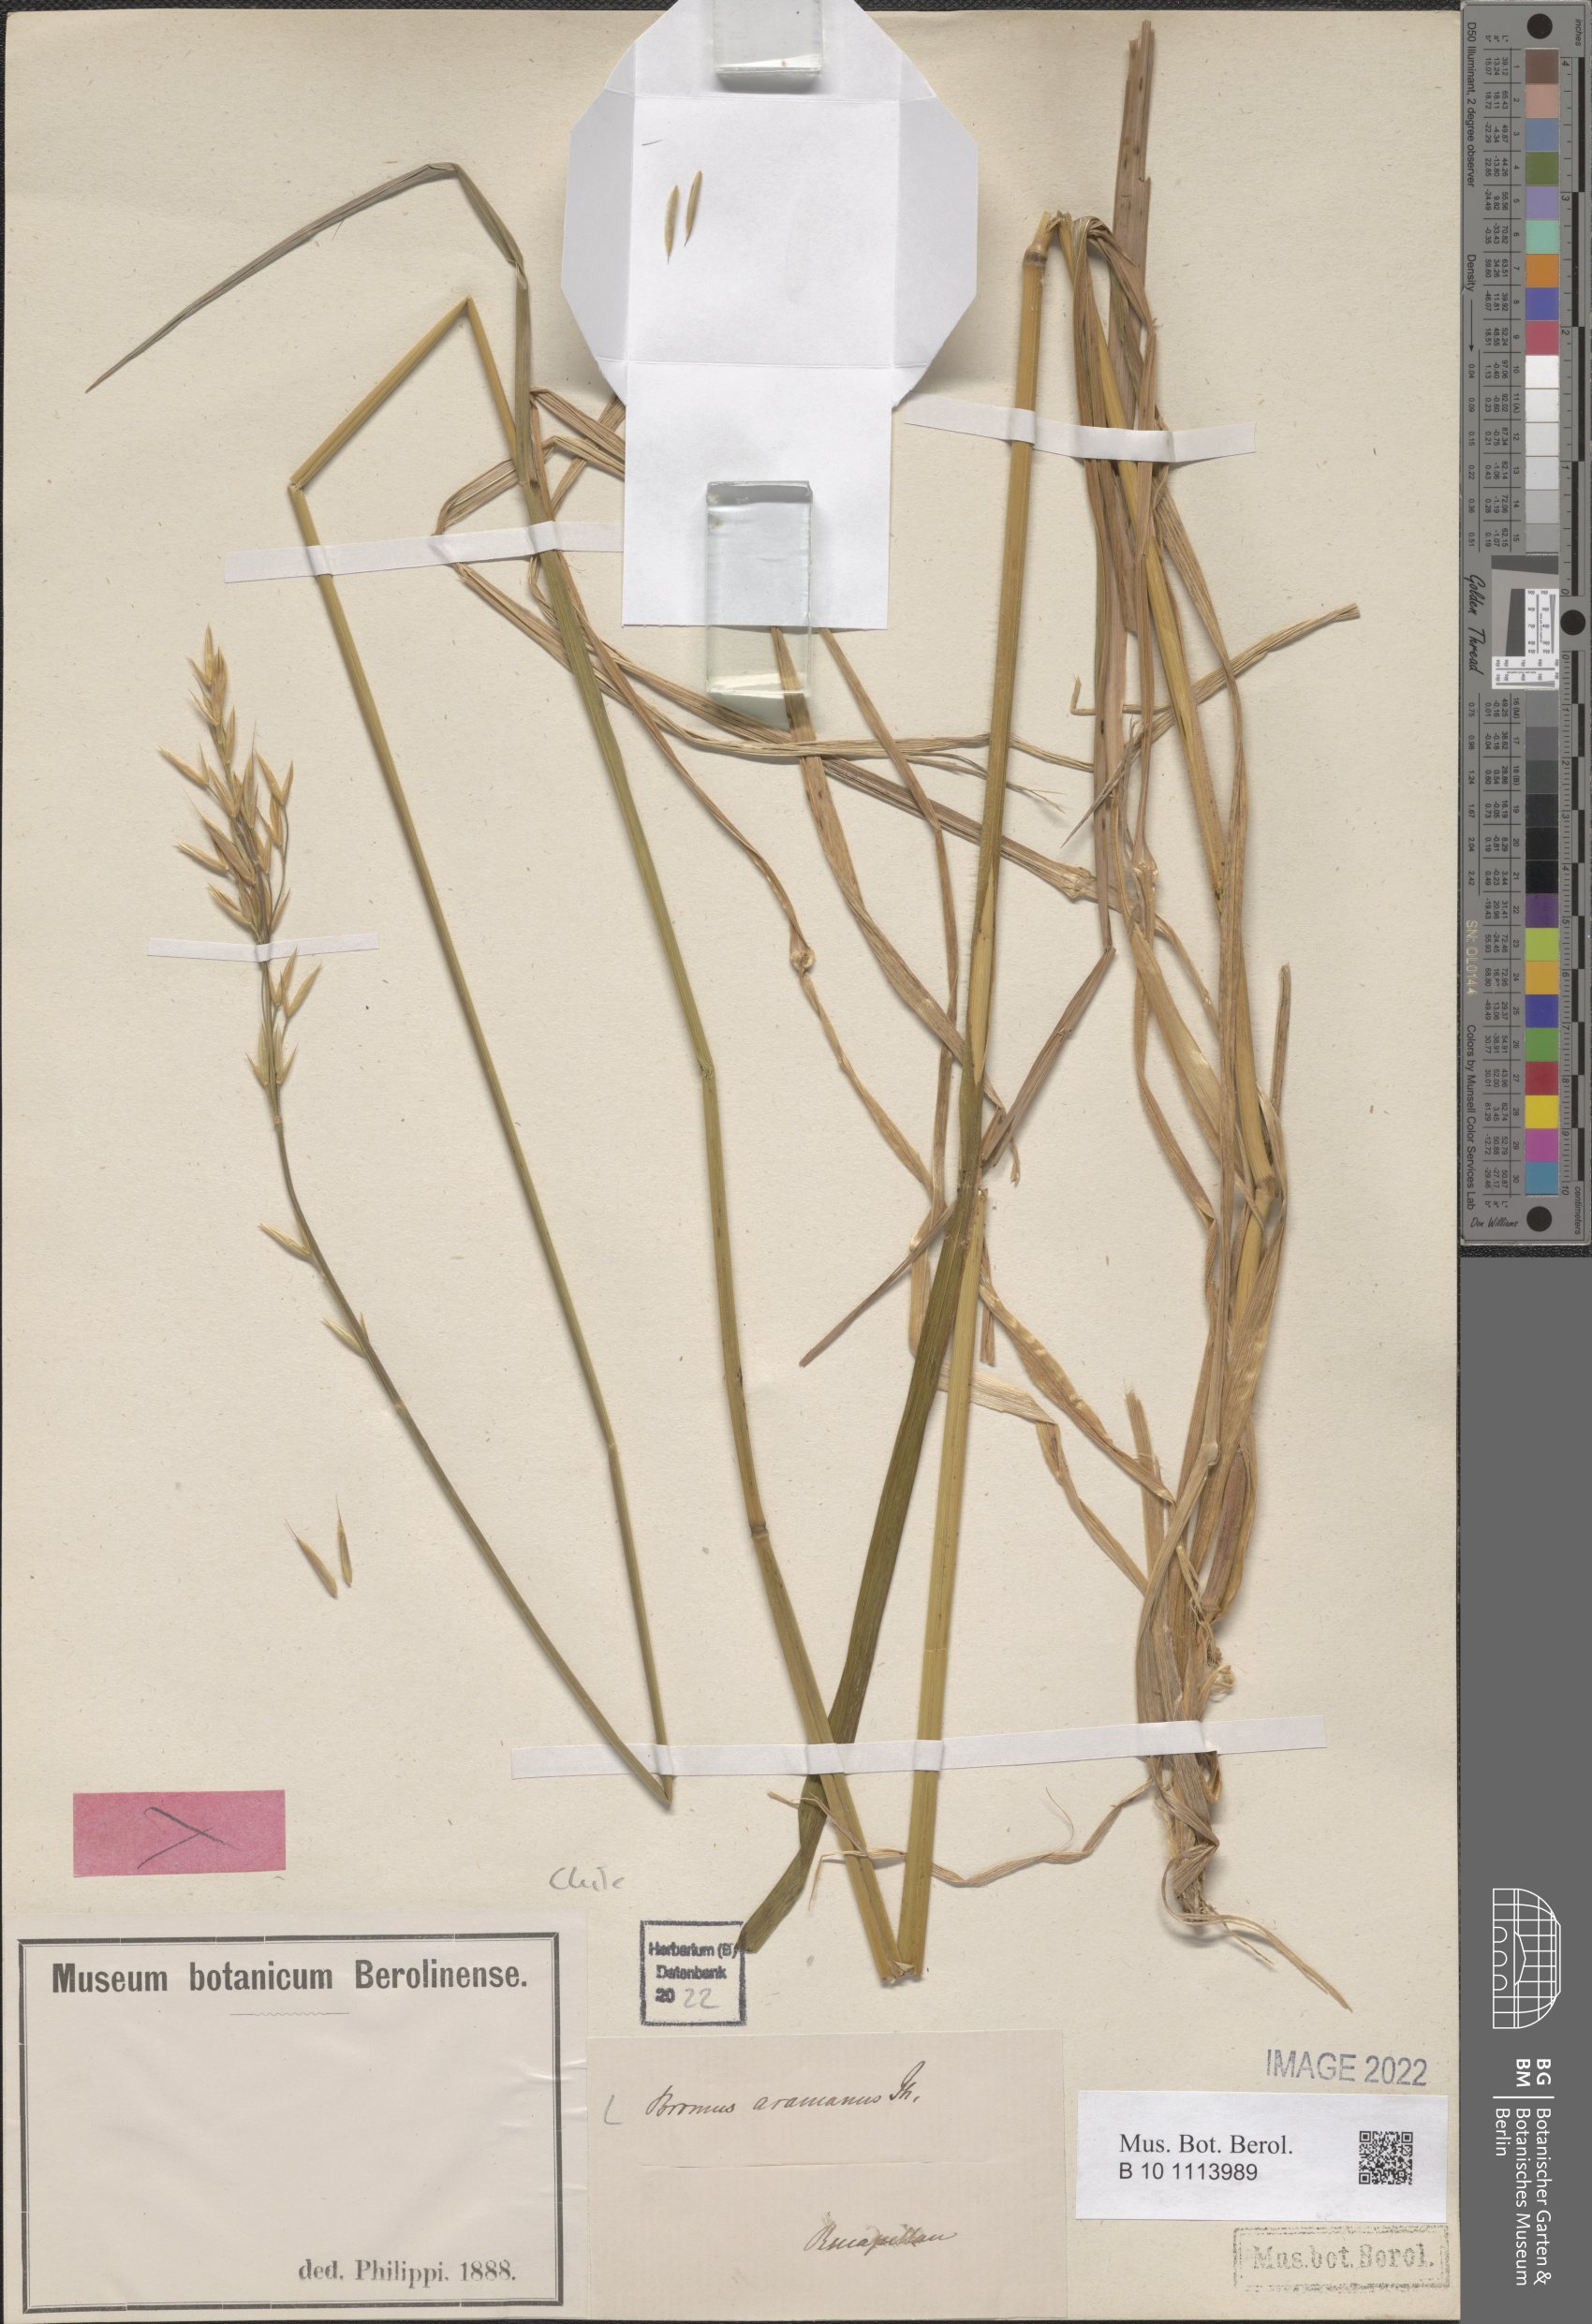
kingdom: Plantae
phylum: Tracheophyta
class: Liliopsida
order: Poales
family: Poaceae
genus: Bromus
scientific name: Bromus araucanus
